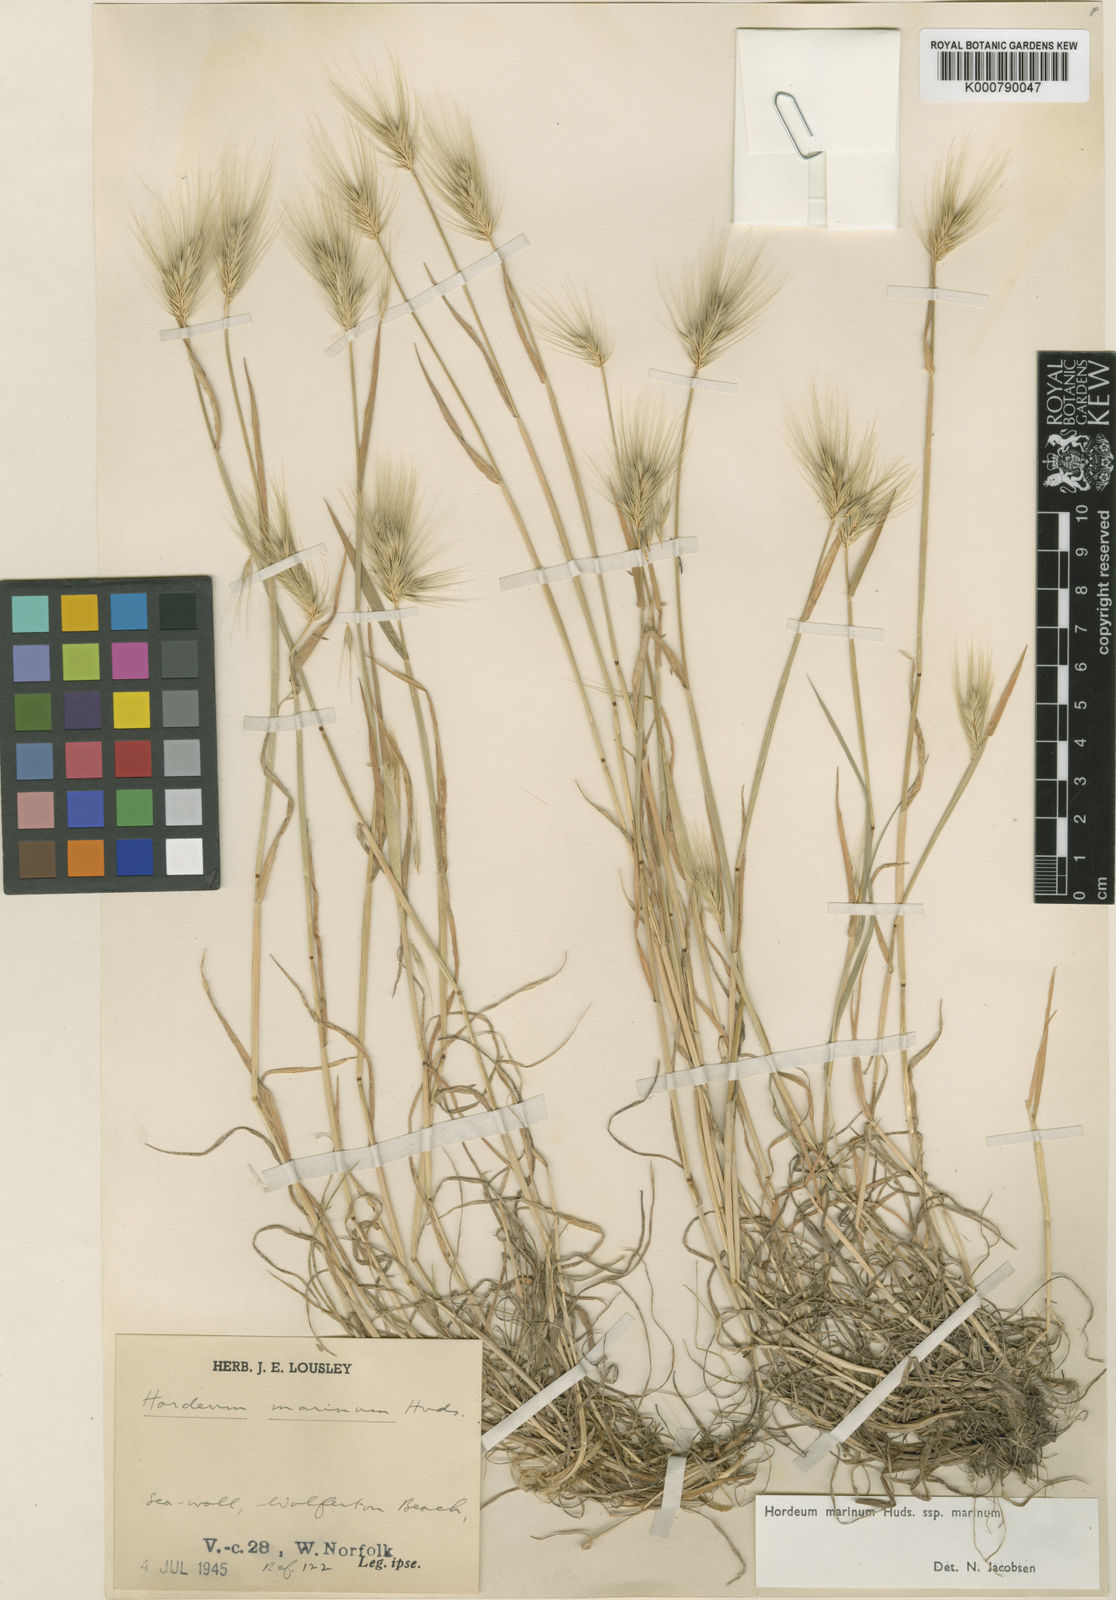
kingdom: Plantae
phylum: Tracheophyta
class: Liliopsida
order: Poales
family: Poaceae
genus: Hordeum
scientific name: Hordeum marinum
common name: Sea barley
